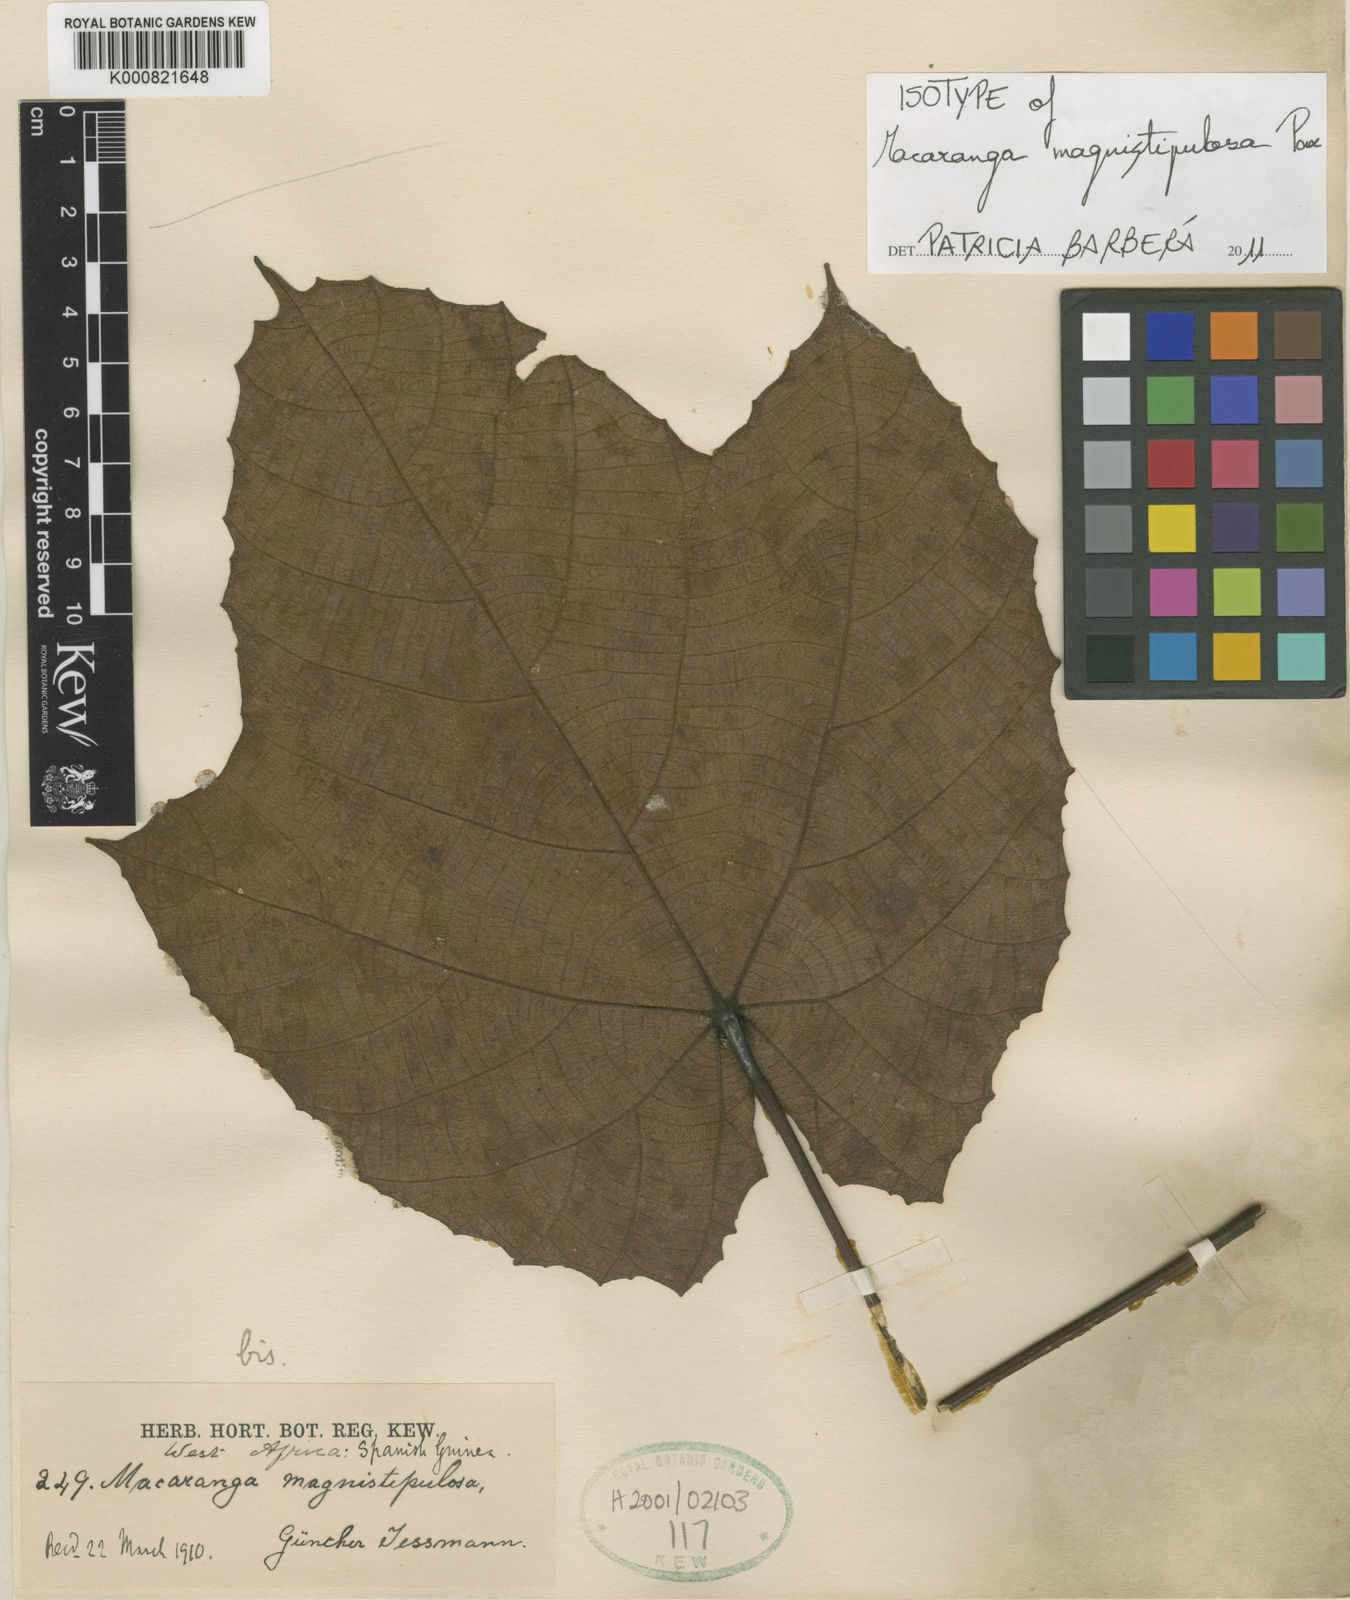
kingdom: Plantae
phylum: Tracheophyta
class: Magnoliopsida
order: Malpighiales
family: Euphorbiaceae
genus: Macaranga
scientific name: Macaranga magnistipulosa
